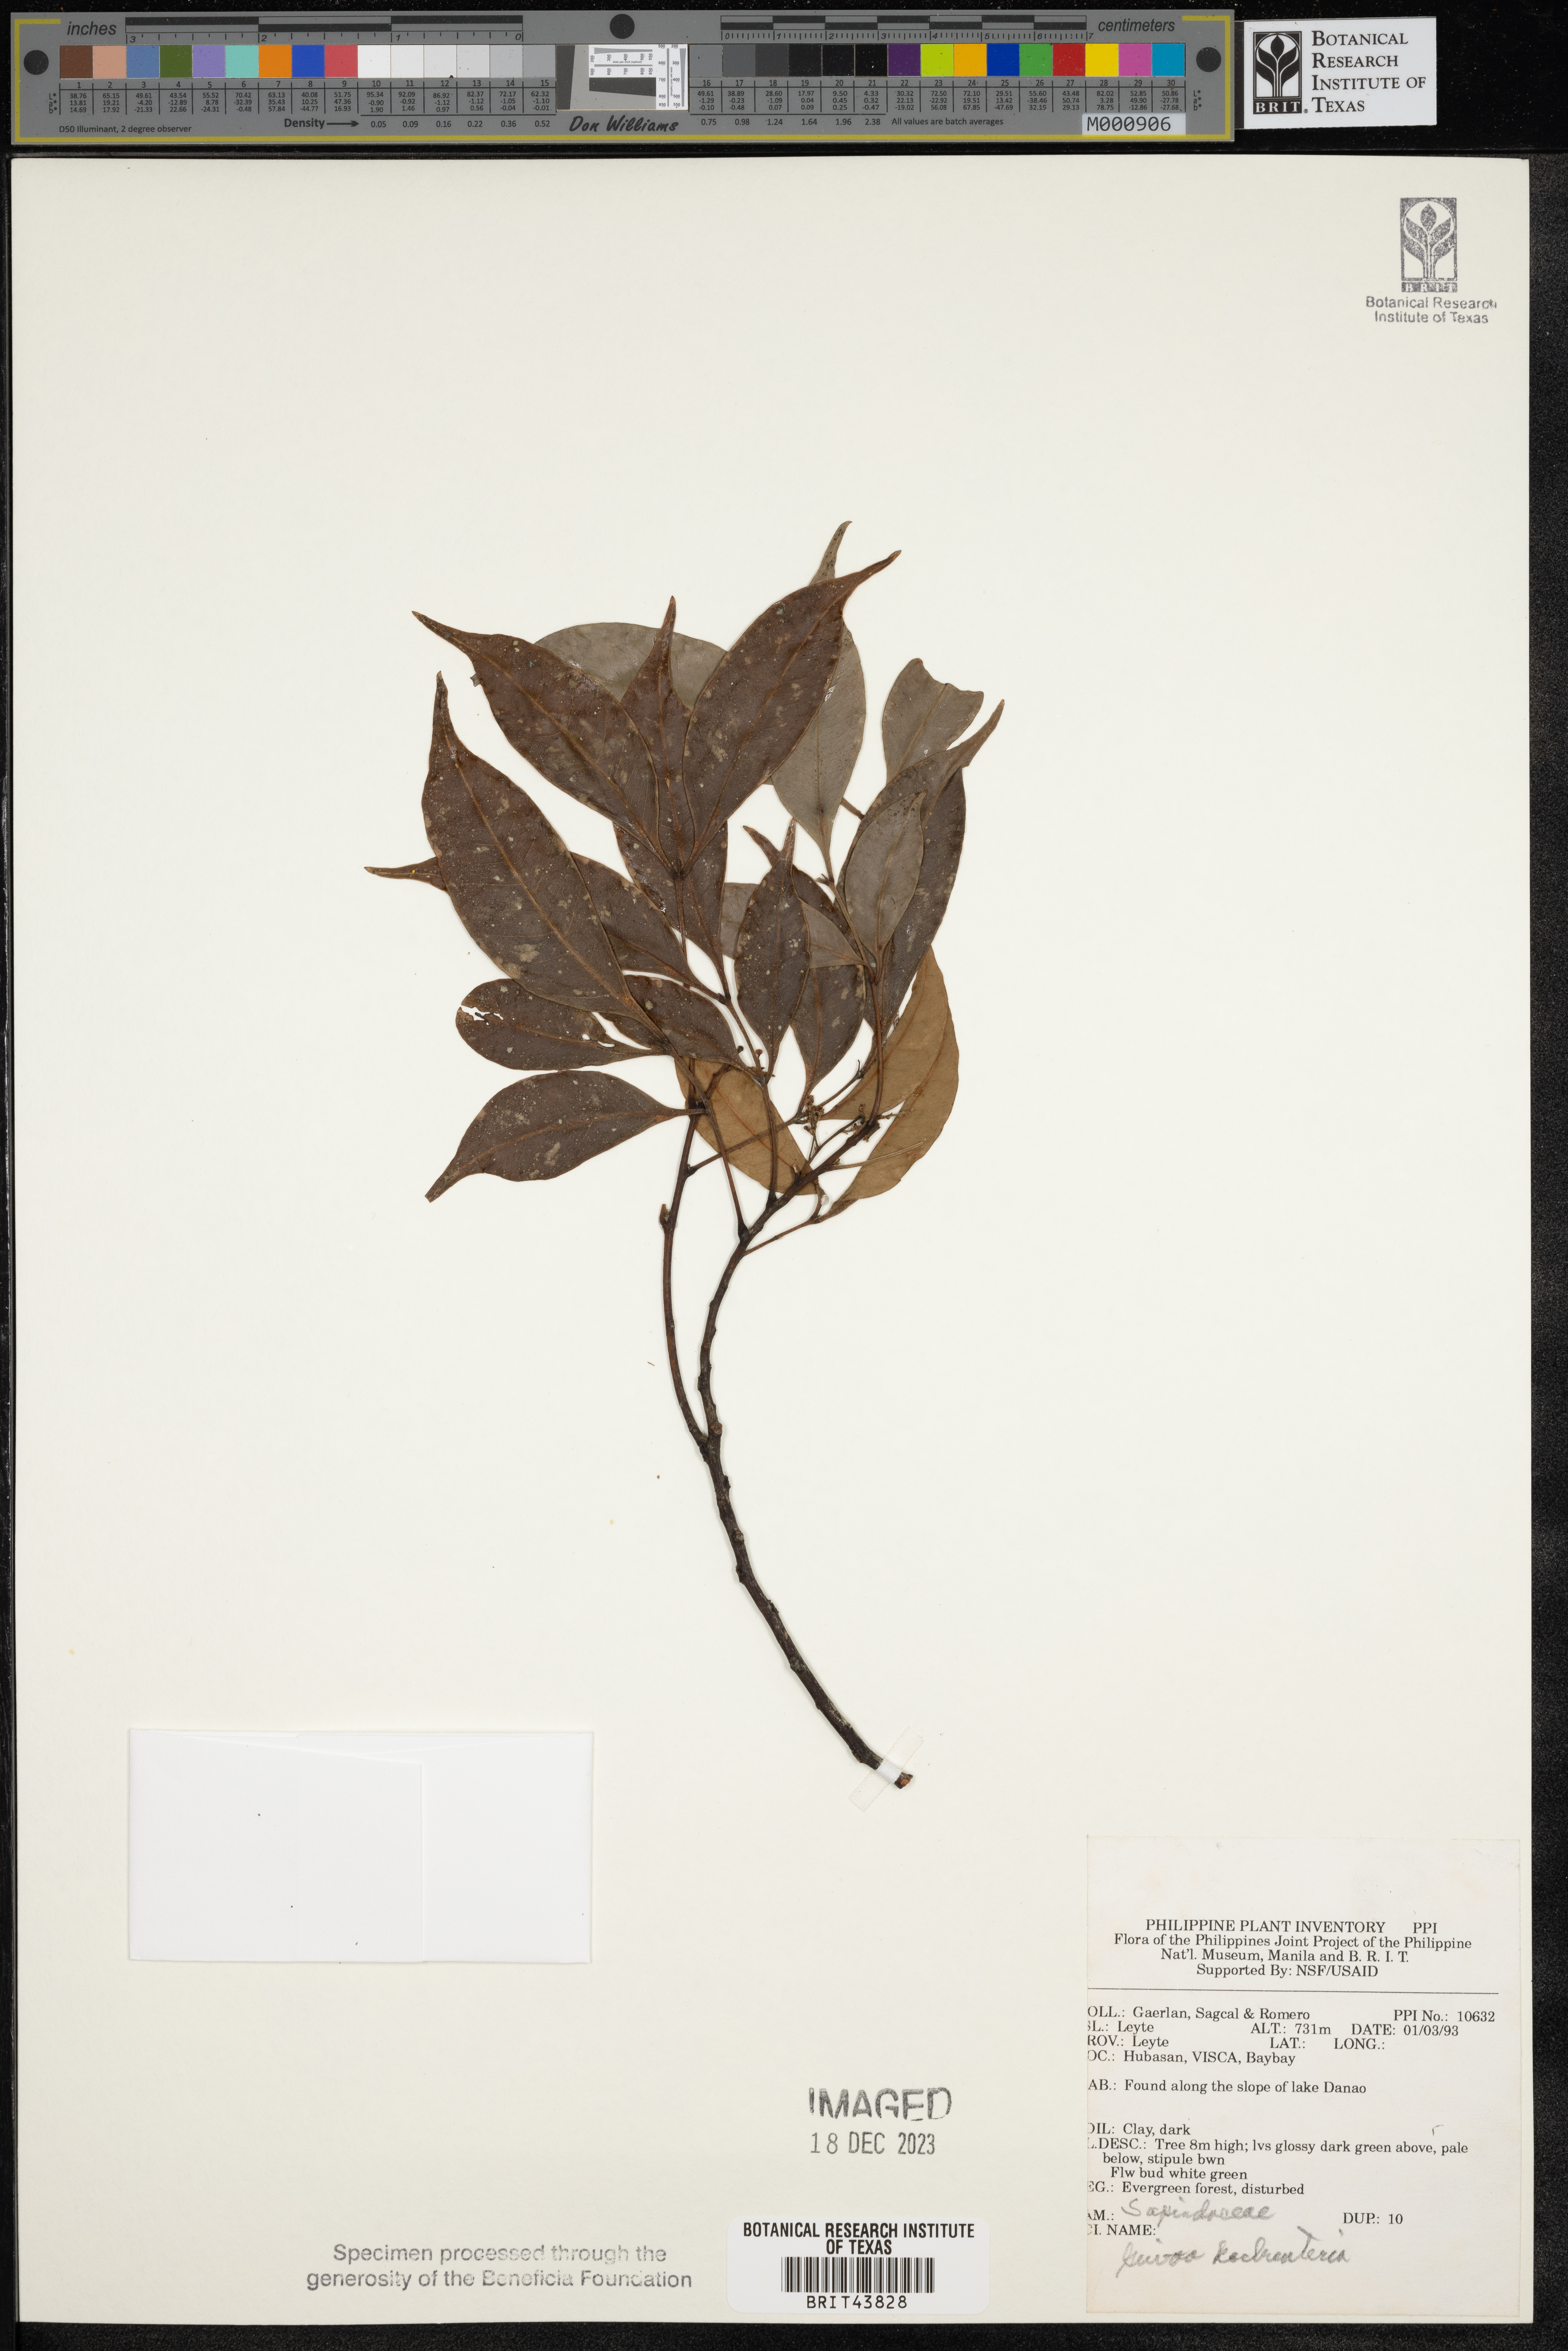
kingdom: Plantae
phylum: Tracheophyta
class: Magnoliopsida
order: Sapindales
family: Sapindaceae
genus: Guioa
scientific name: Guioa koelreuteria
